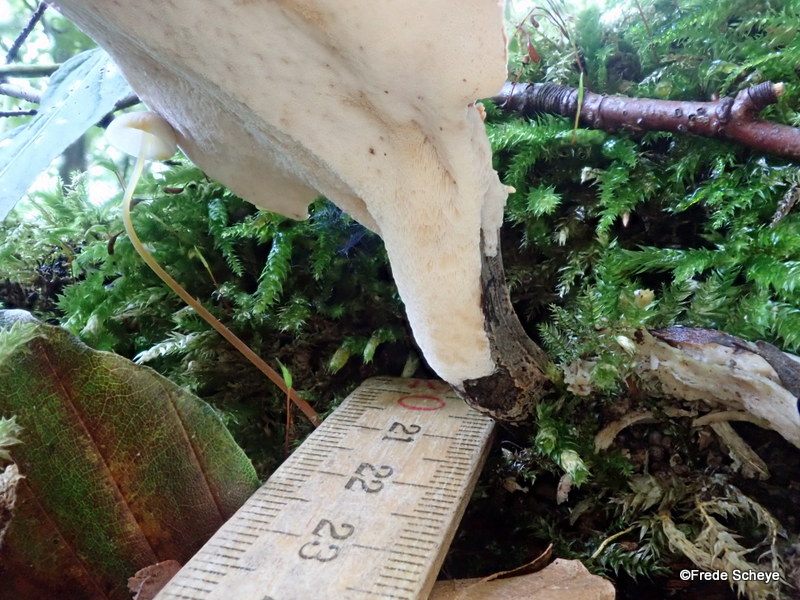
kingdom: Fungi
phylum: Basidiomycota
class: Agaricomycetes
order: Polyporales
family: Polyporaceae
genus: Picipes
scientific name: Picipes badius
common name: kastaniebrun stilkporesvamp
